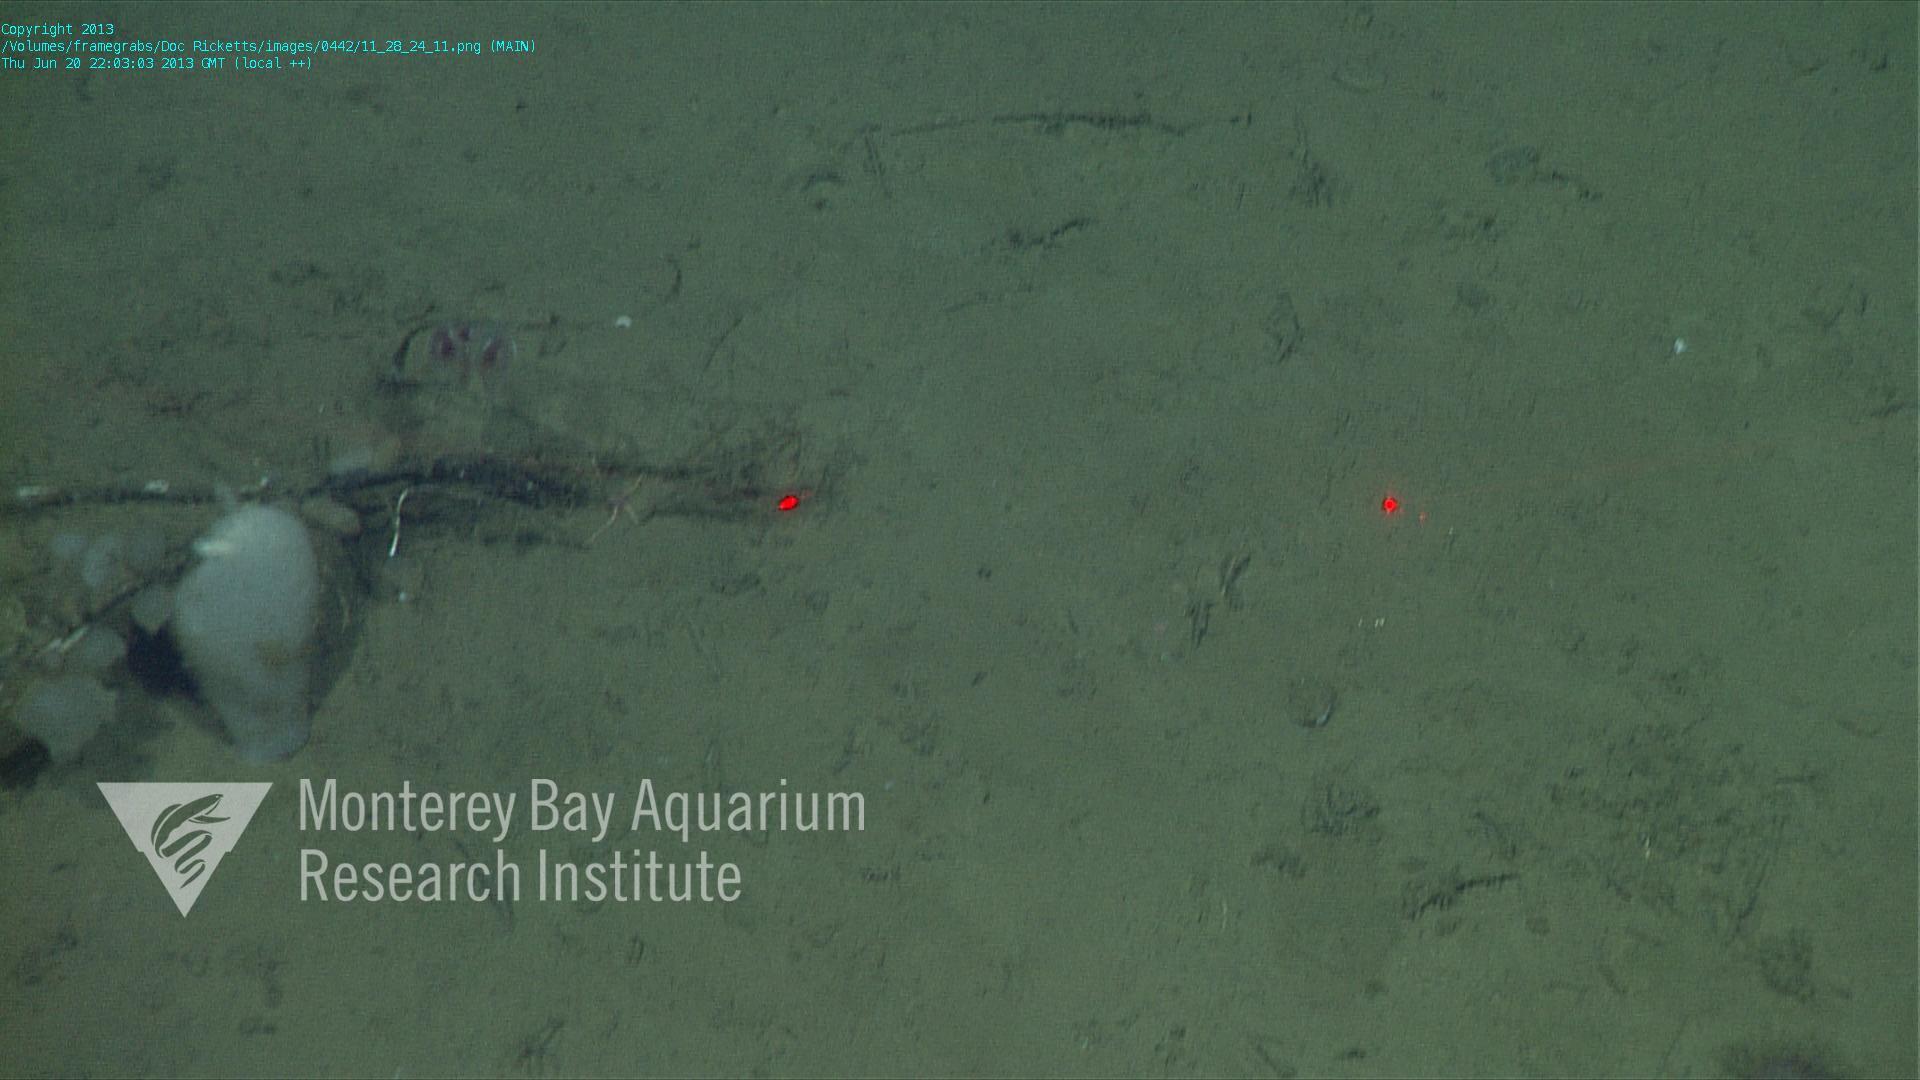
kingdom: Animalia
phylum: Porifera
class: Hexactinellida
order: Lyssacinosida
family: Rossellidae
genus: Bathydorus
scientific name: Bathydorus spinosus
